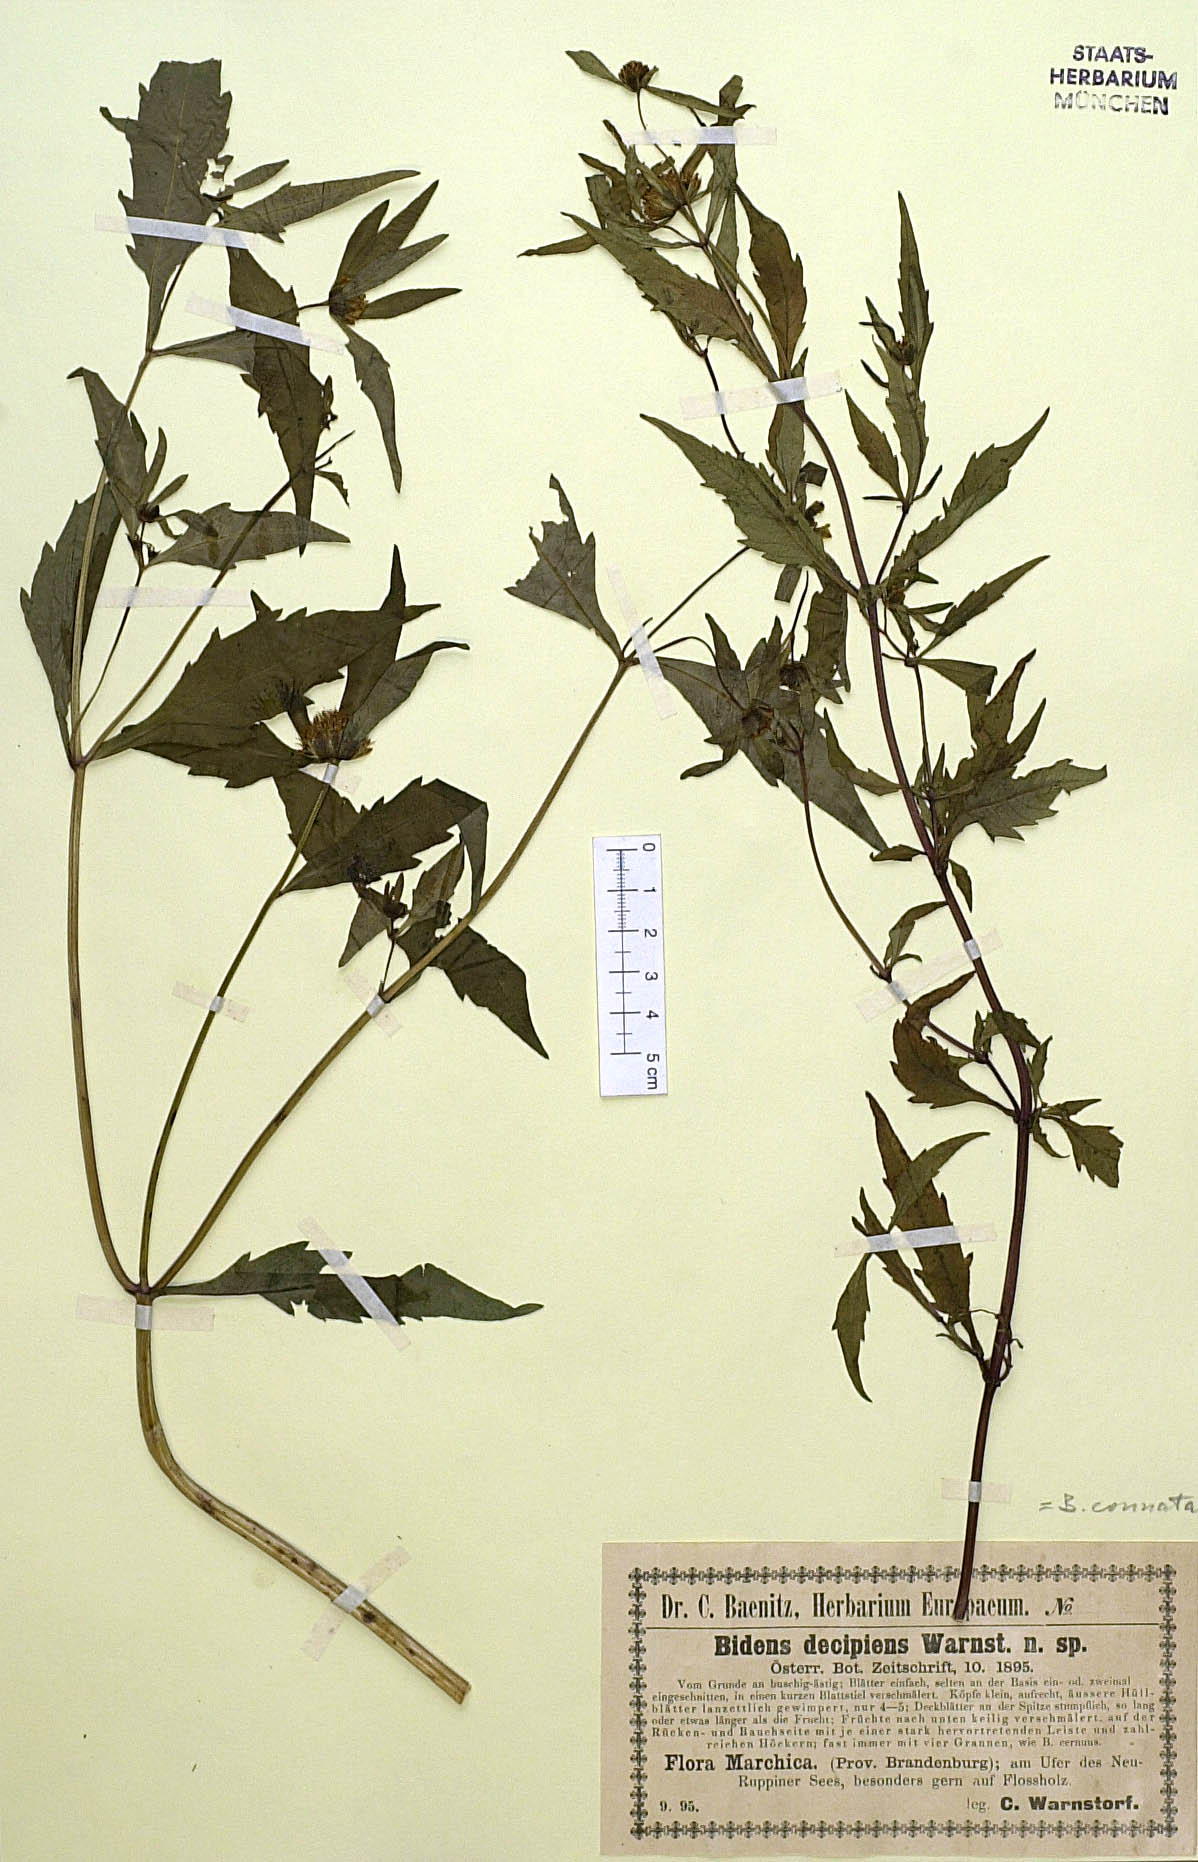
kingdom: Plantae
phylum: Tracheophyta
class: Magnoliopsida
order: Asterales
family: Asteraceae
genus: Bidens
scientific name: Bidens connata
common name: London bur-marigold
